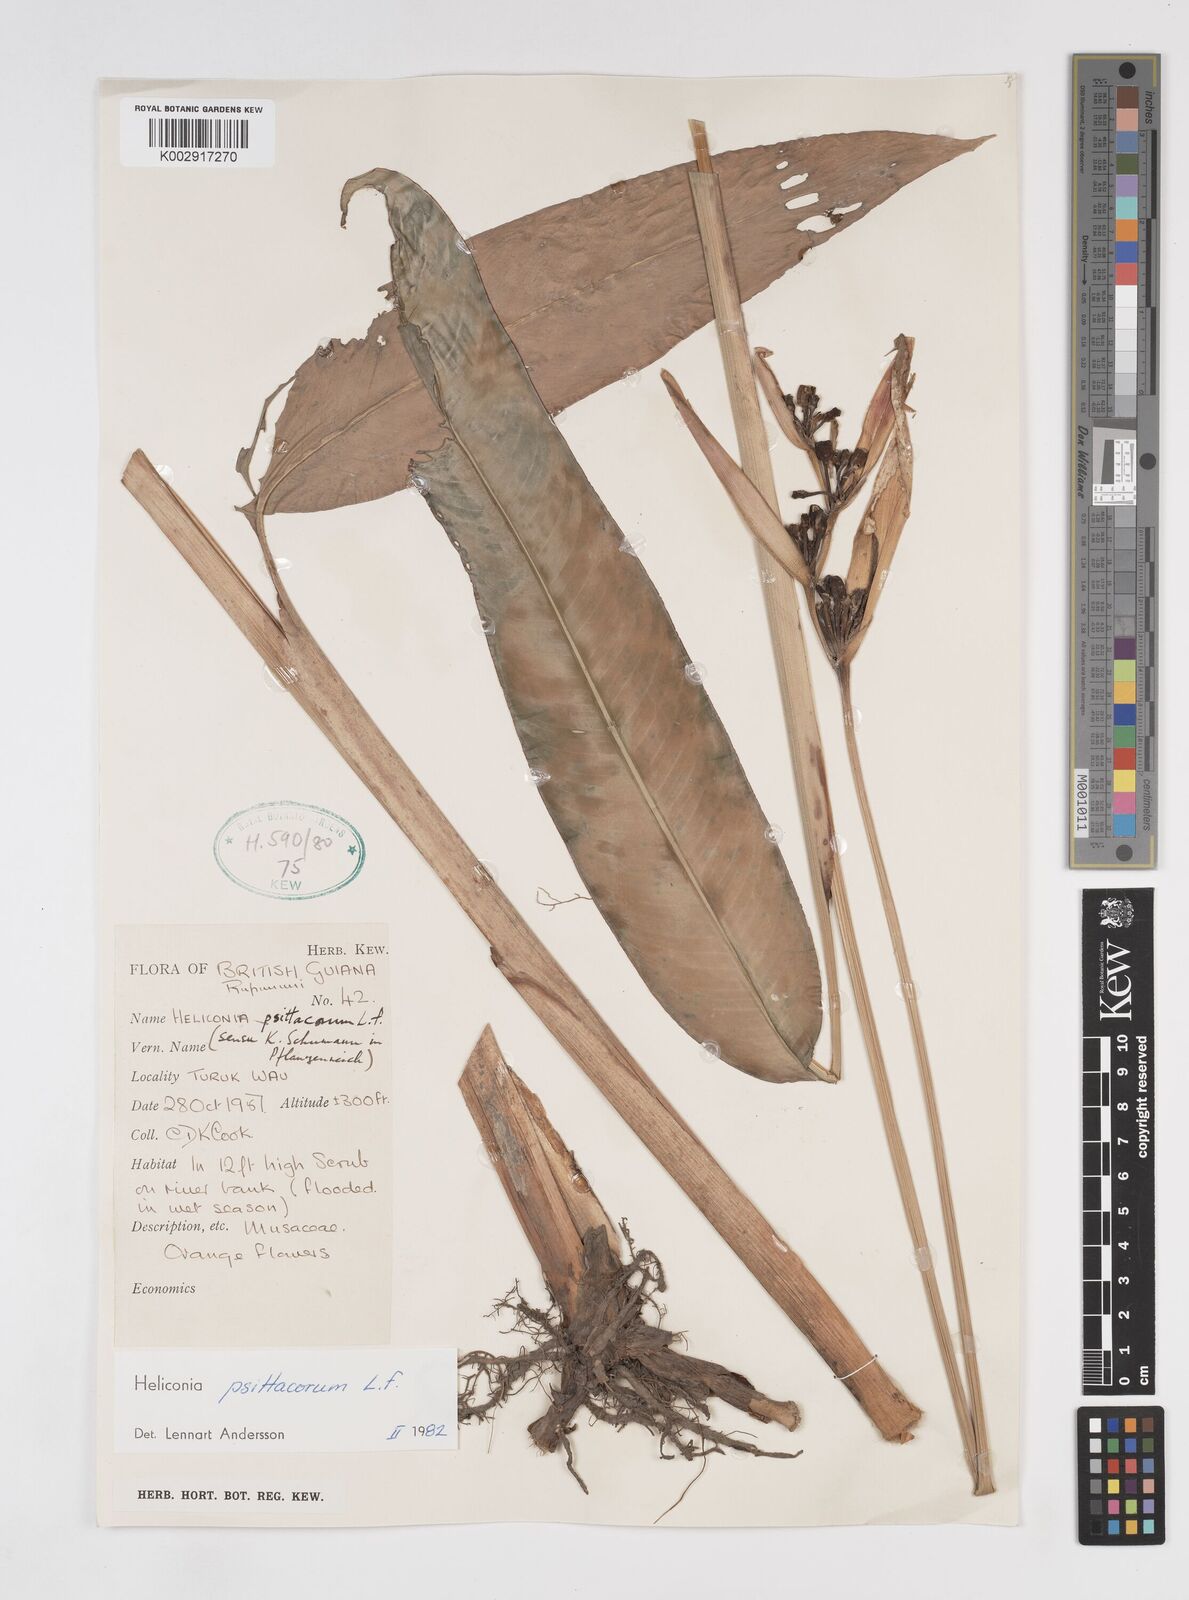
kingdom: Plantae
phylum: Tracheophyta
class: Liliopsida
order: Zingiberales
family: Heliconiaceae
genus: Heliconia
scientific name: Heliconia psittacorum
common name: Parrot's-flower
